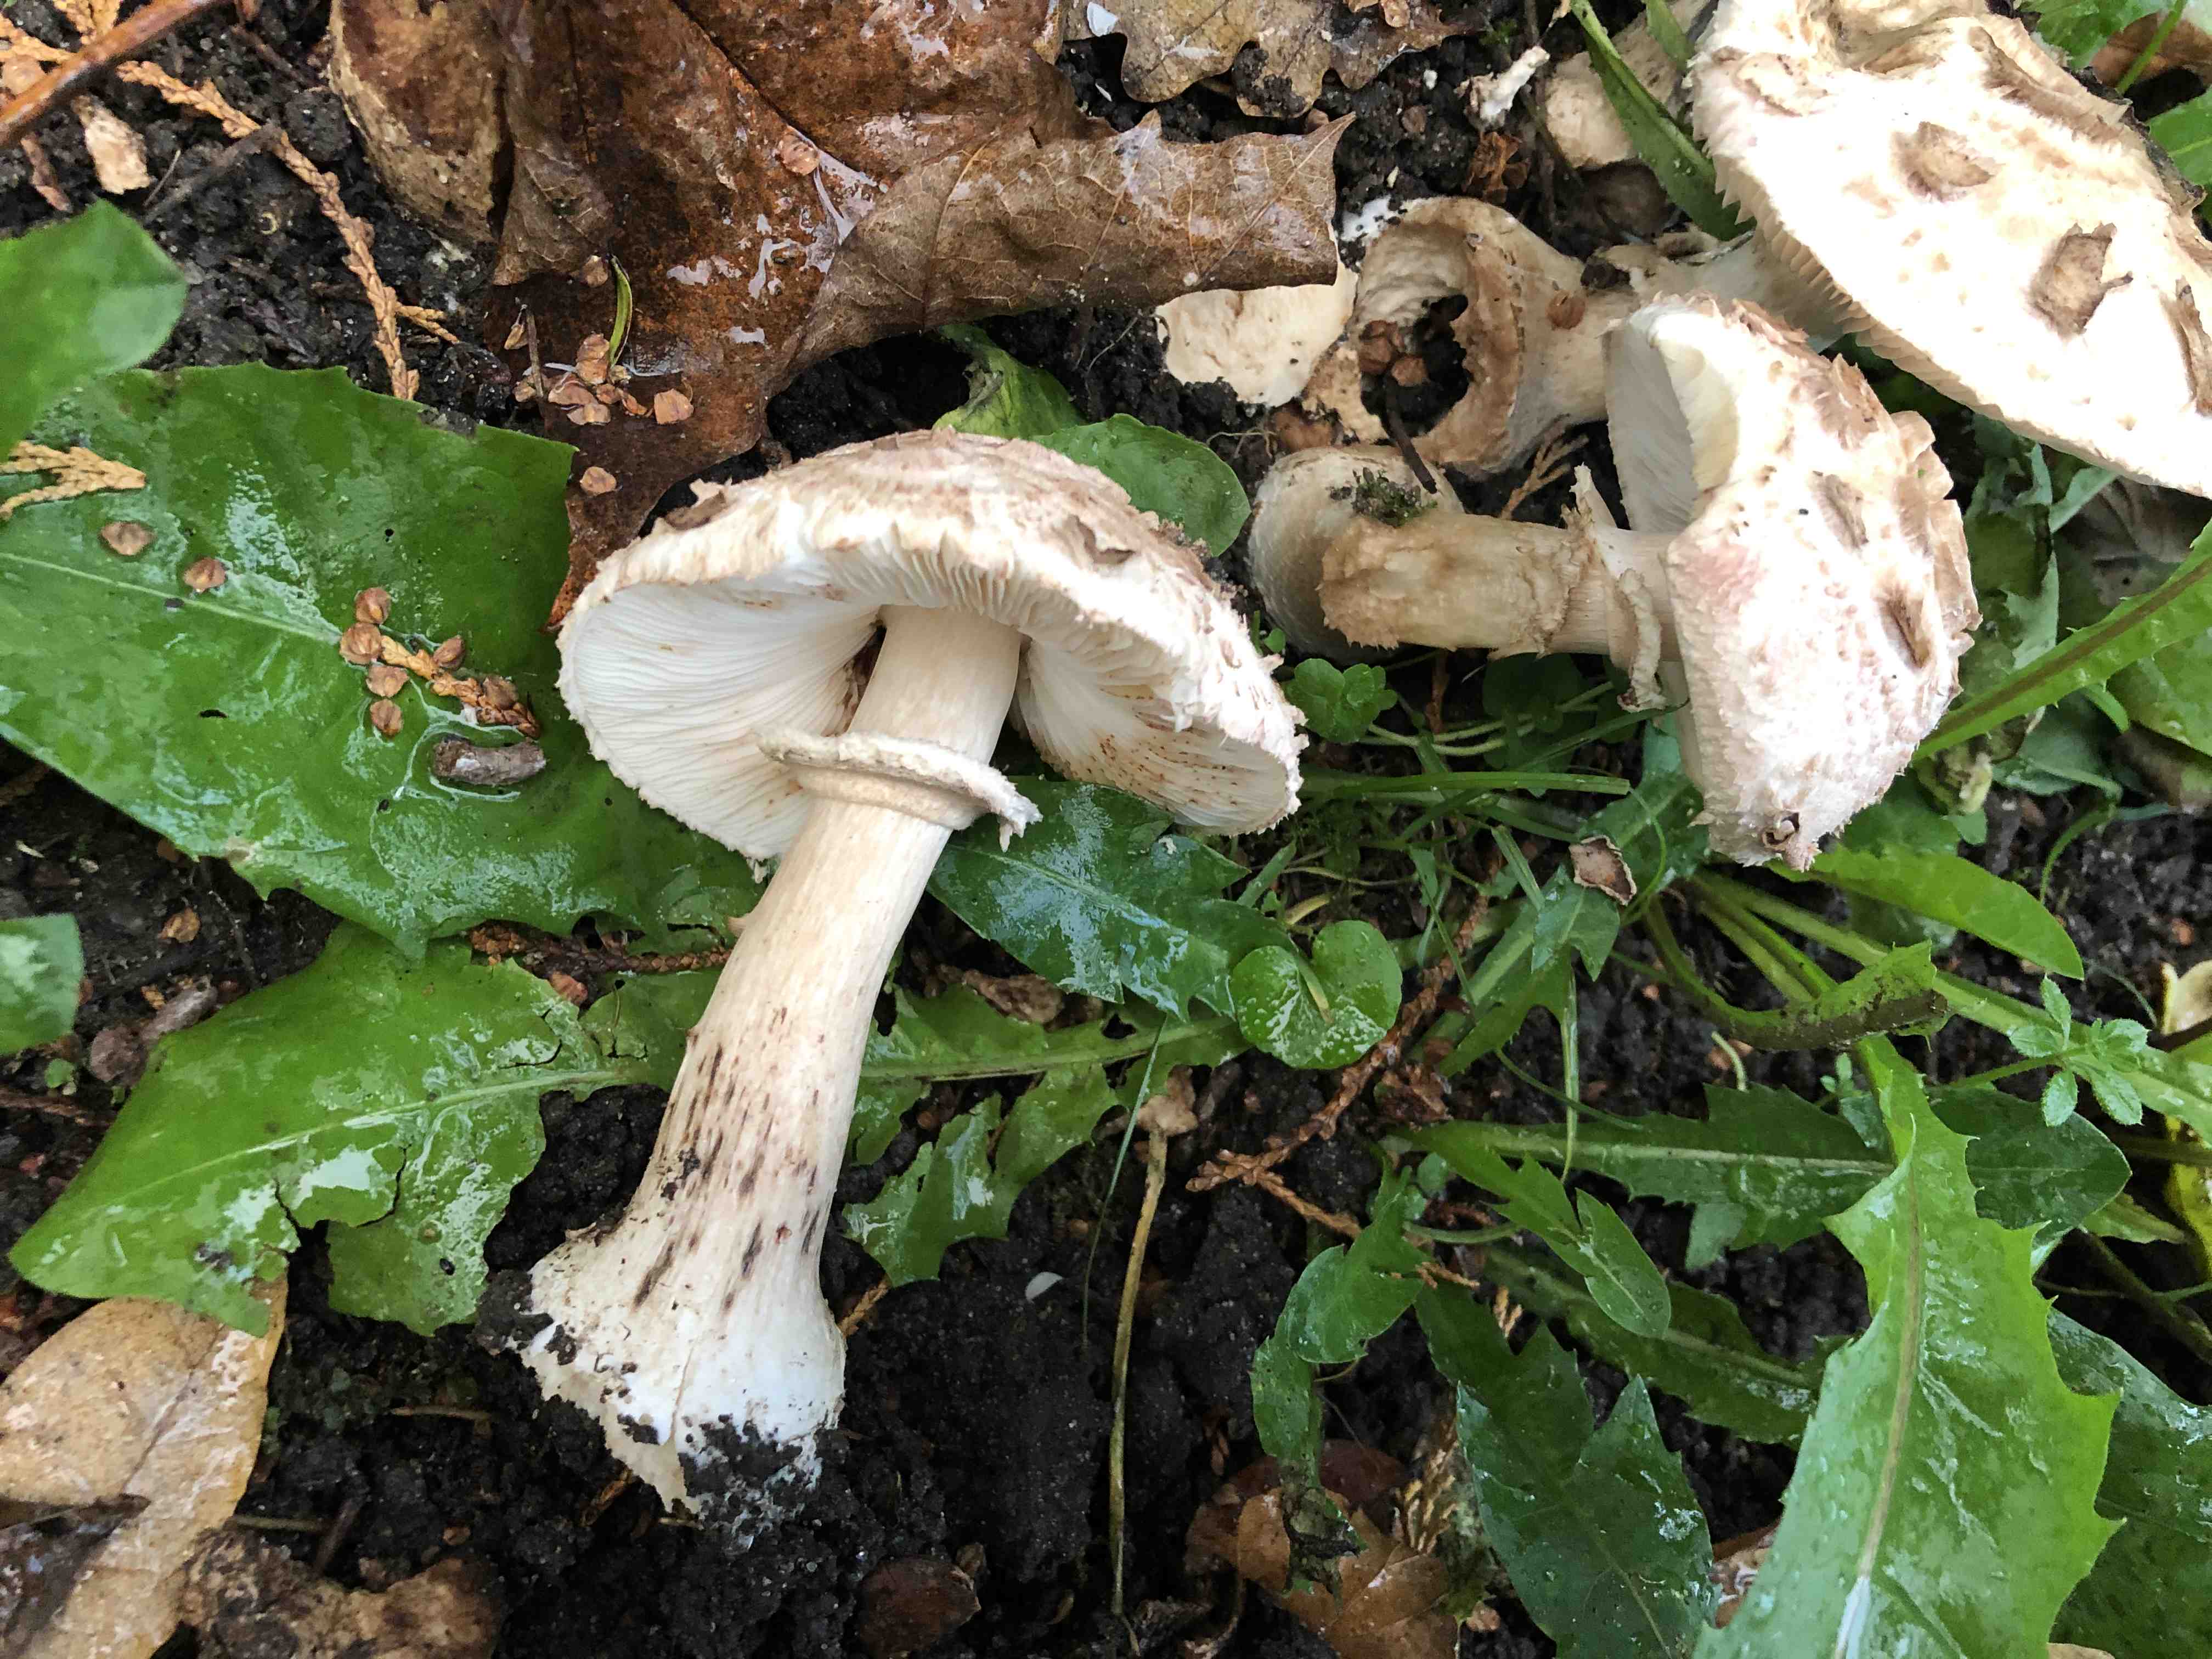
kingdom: Fungi
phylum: Basidiomycota
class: Agaricomycetes
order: Agaricales
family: Agaricaceae
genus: Chlorophyllum
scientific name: Chlorophyllum brunneum
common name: giftig rabarberhat
